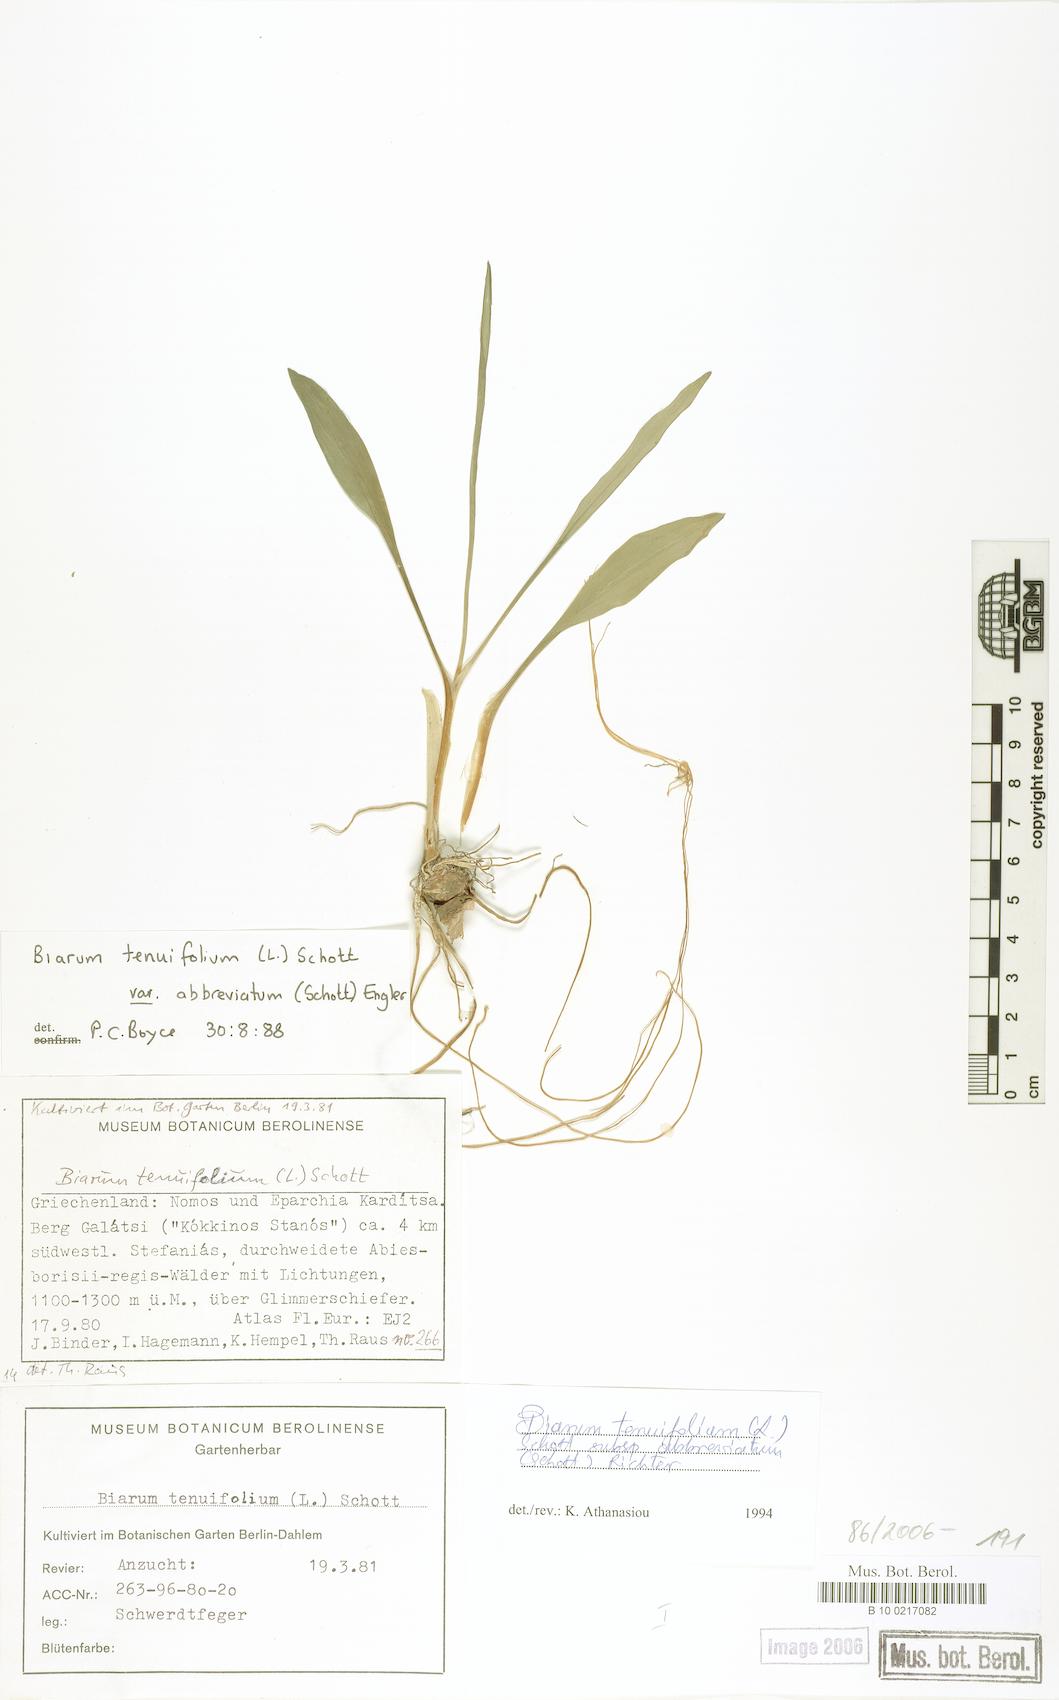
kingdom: Plantae
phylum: Tracheophyta
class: Liliopsida
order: Alismatales
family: Araceae
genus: Biarum
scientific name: Biarum tenuifolium
